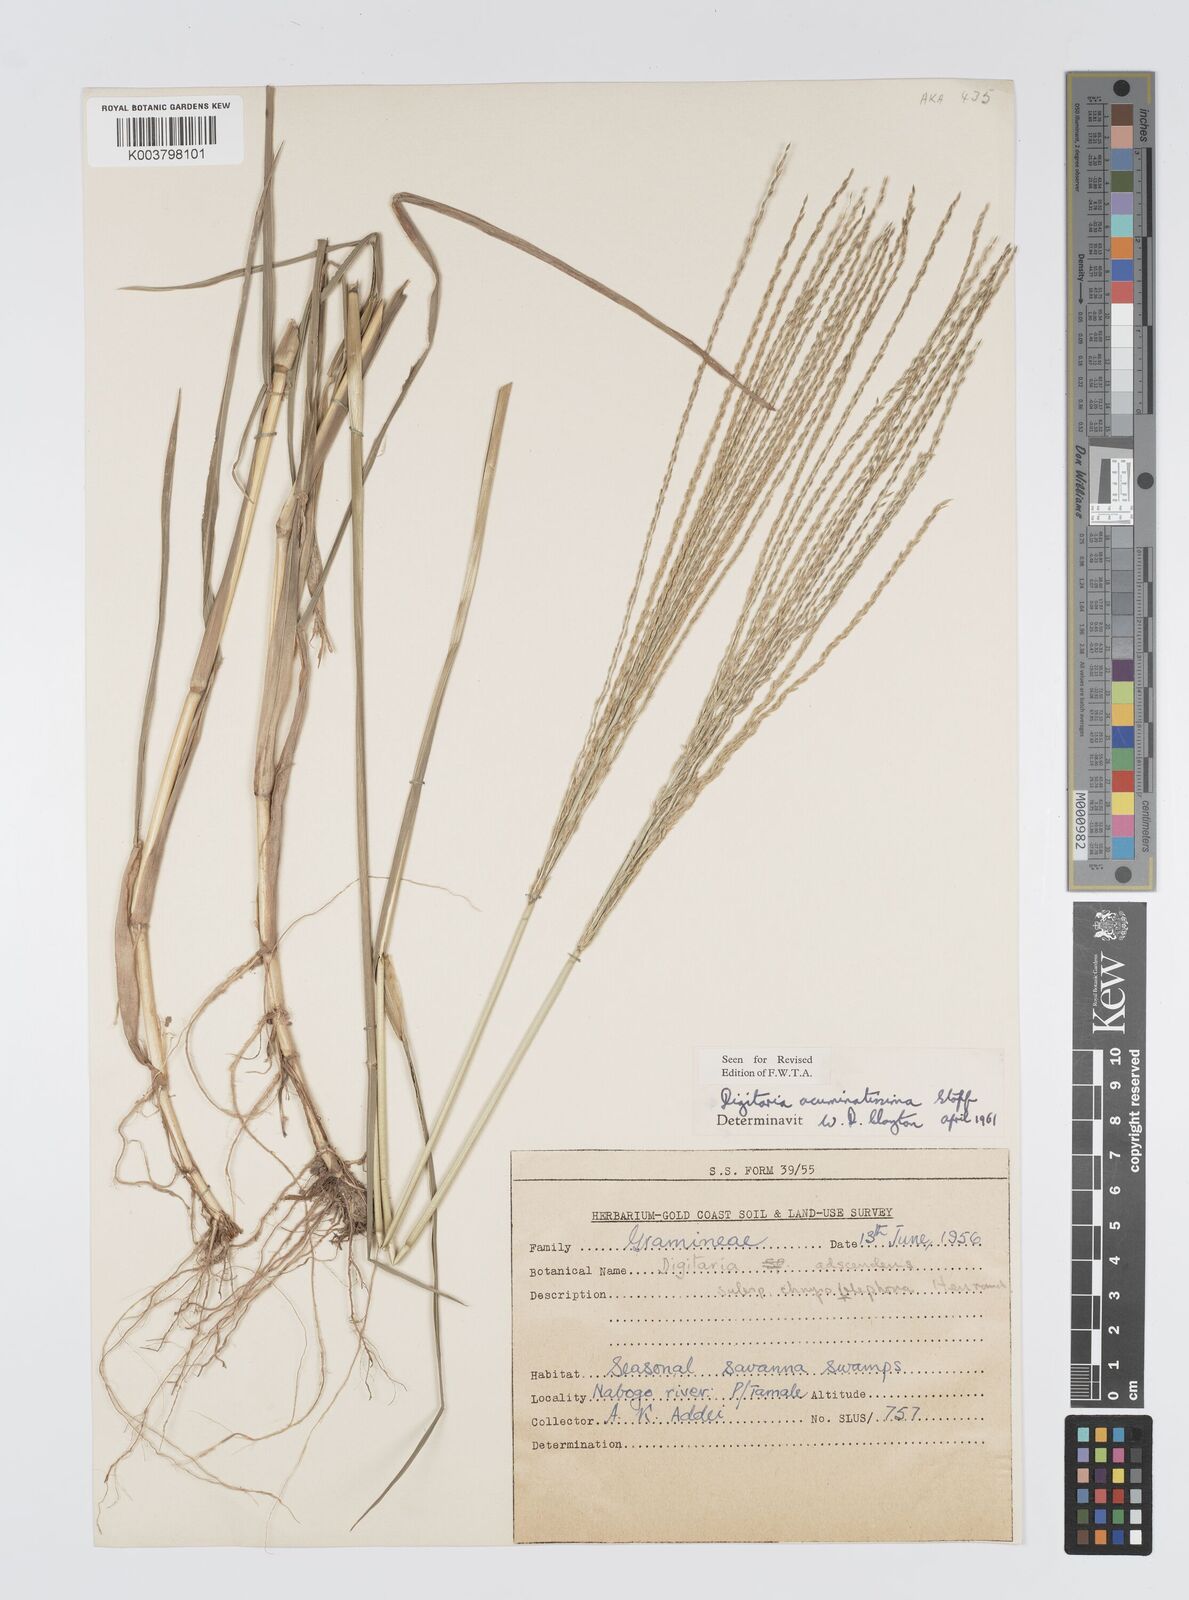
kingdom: Plantae
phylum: Tracheophyta
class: Liliopsida
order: Poales
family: Poaceae
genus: Digitaria
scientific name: Digitaria
